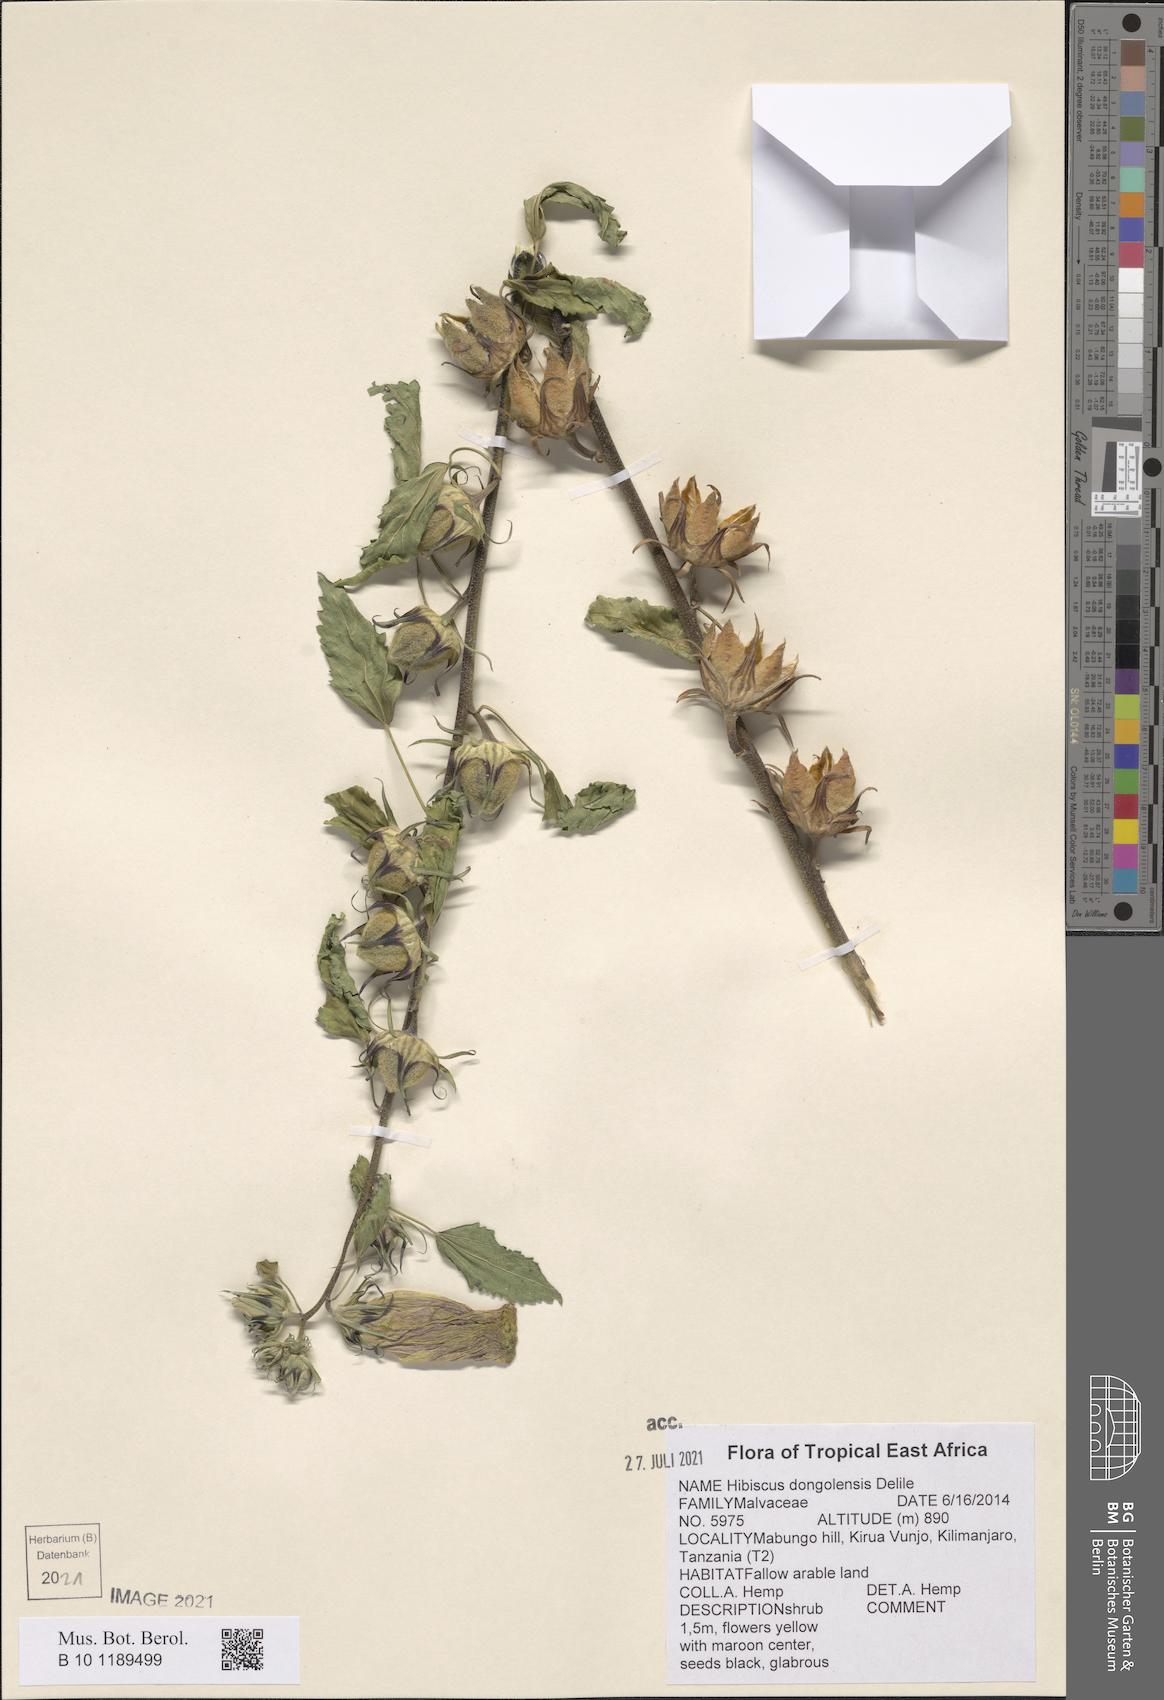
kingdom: Plantae
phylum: Tracheophyta
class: Magnoliopsida
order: Malvales
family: Malvaceae
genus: Hibiscus
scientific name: Hibiscus dongolensis
